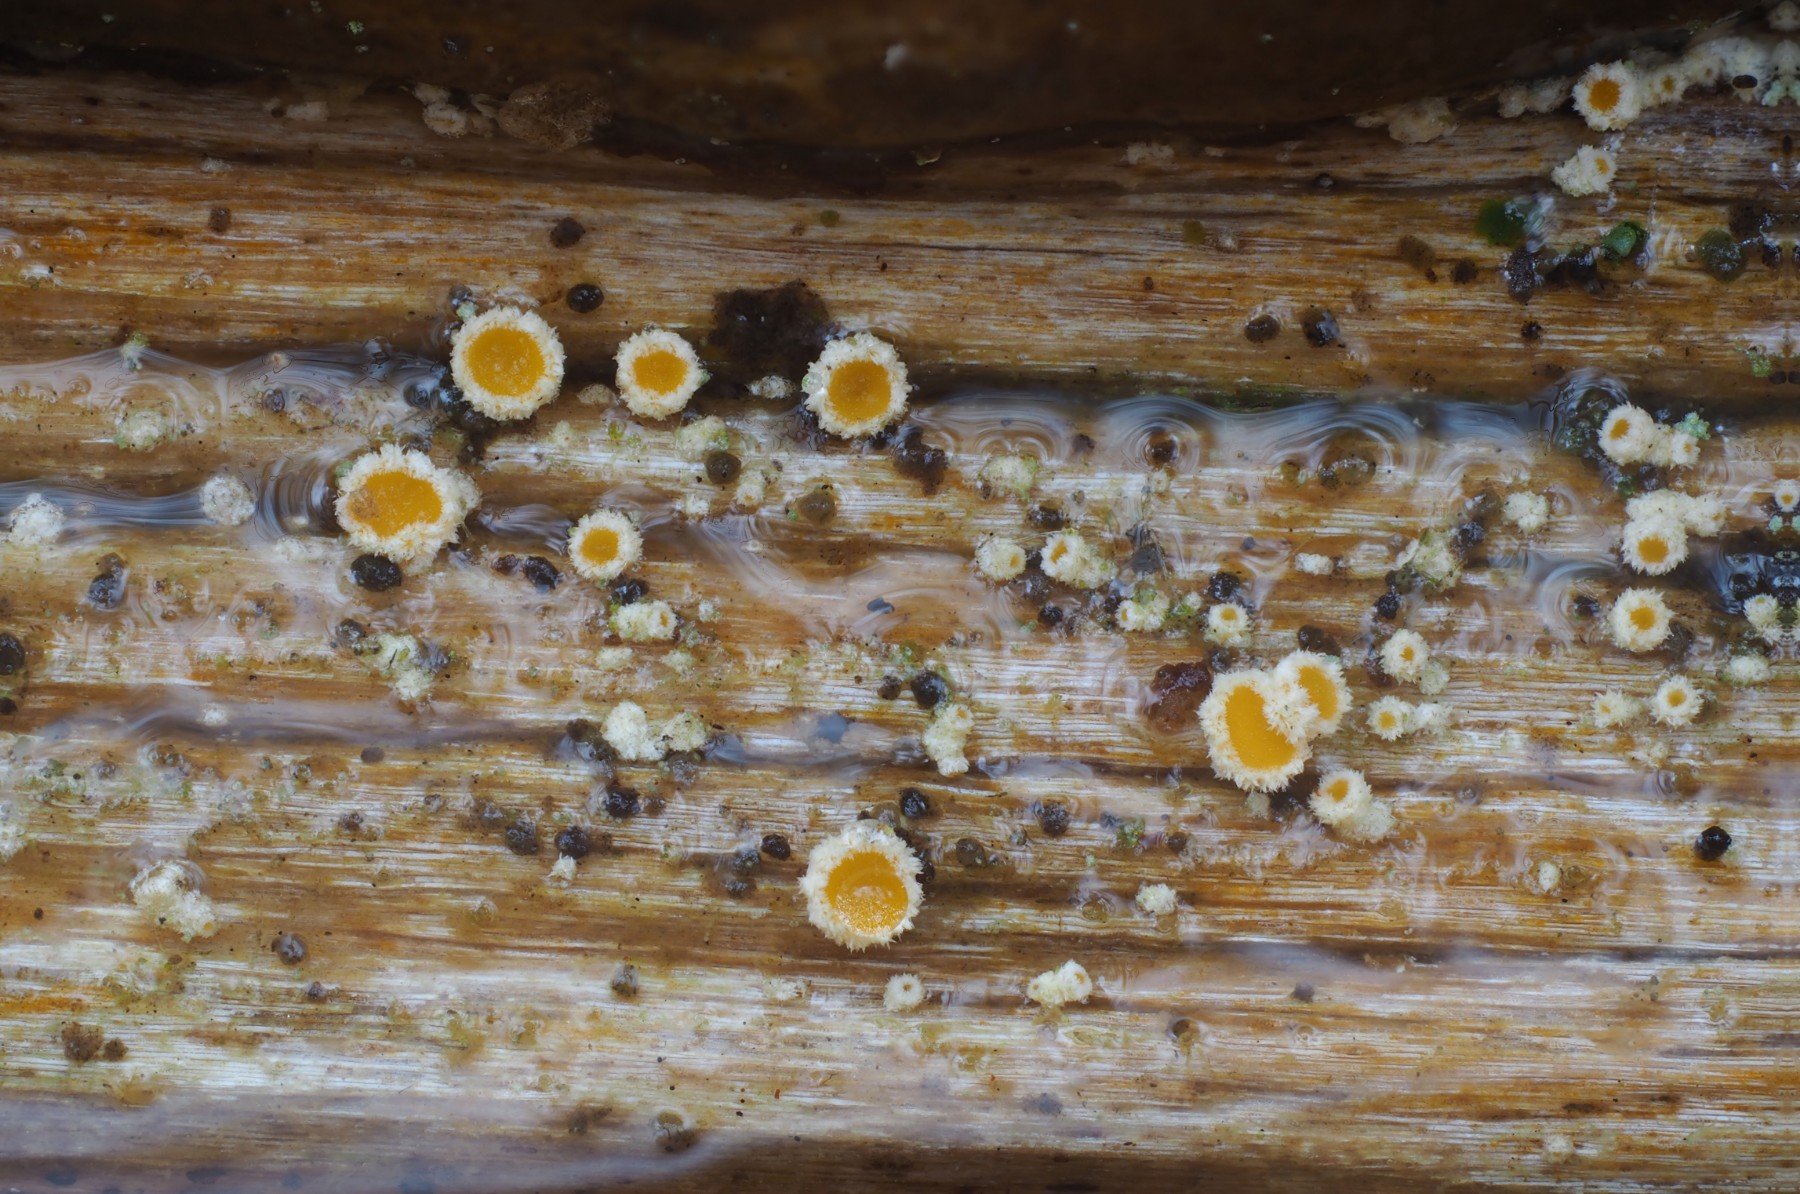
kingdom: Fungi
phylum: Ascomycota
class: Leotiomycetes
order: Helotiales
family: Lachnaceae
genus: Lachnellula
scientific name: Lachnellula calycina
